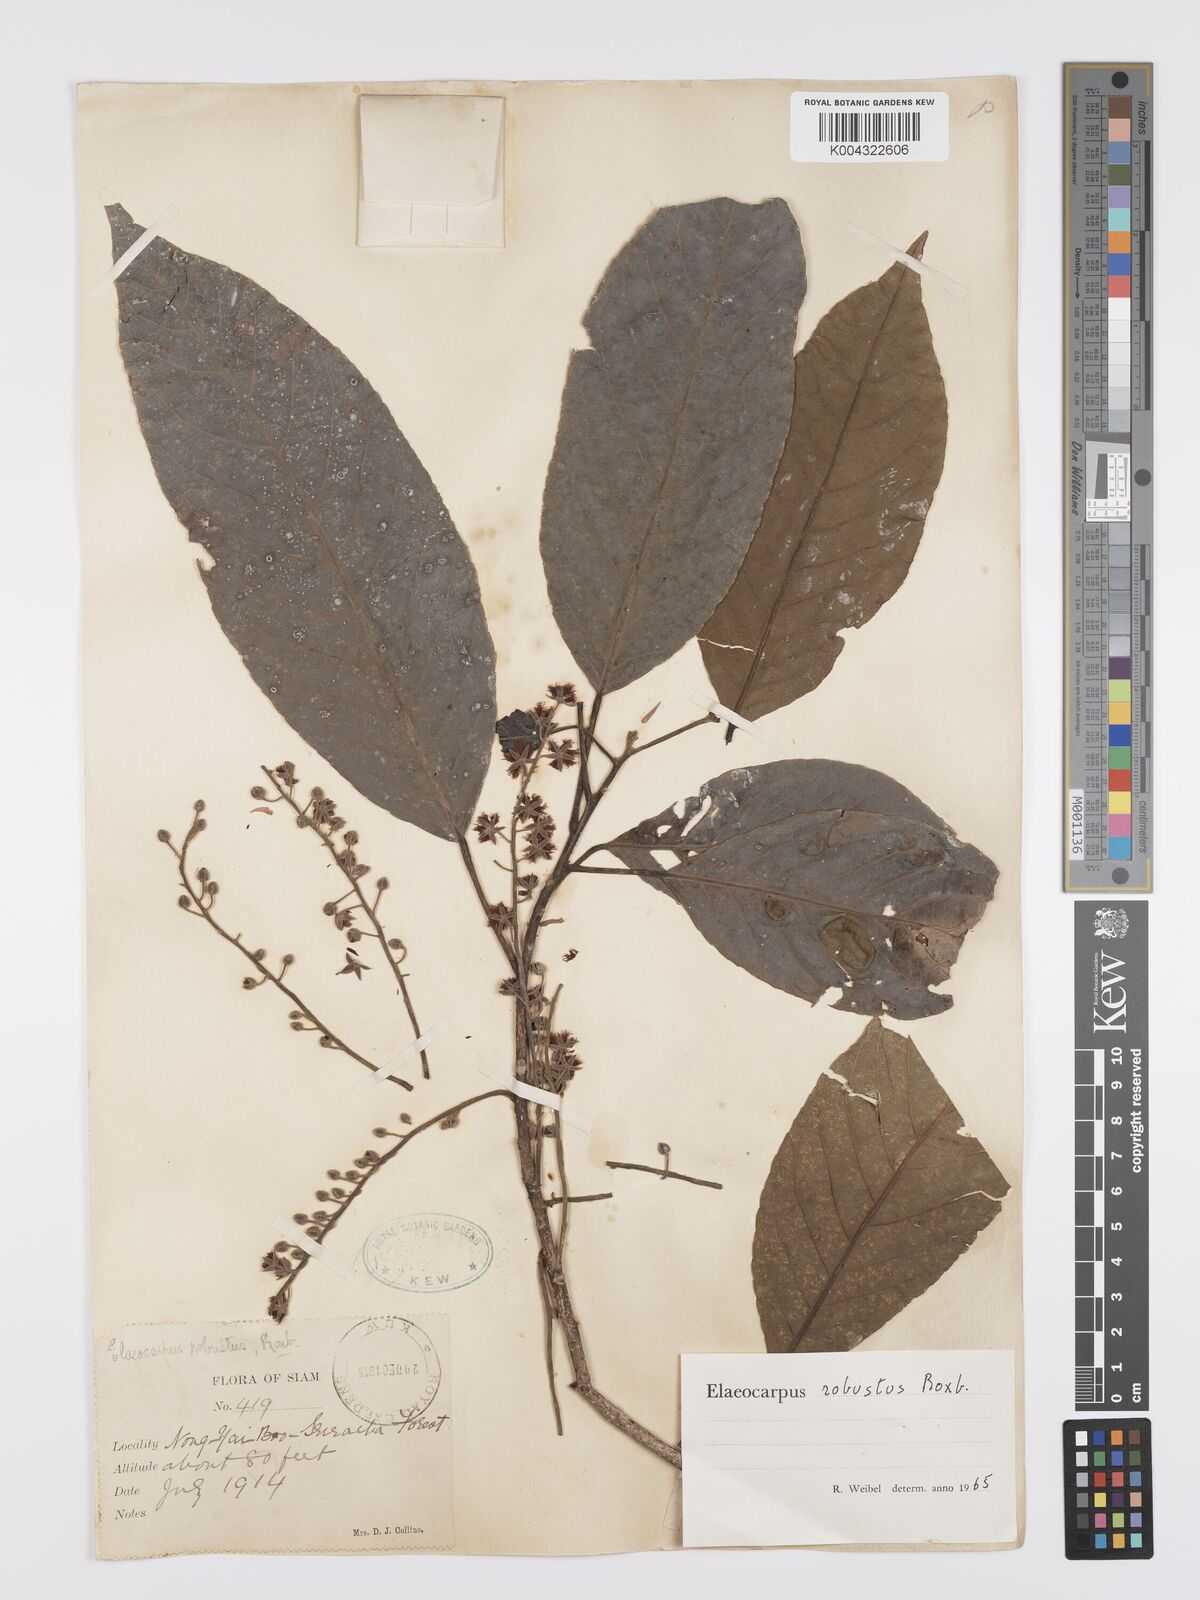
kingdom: Plantae
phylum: Tracheophyta
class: Magnoliopsida
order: Oxalidales
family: Elaeocarpaceae
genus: Elaeocarpus
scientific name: Elaeocarpus robustus
